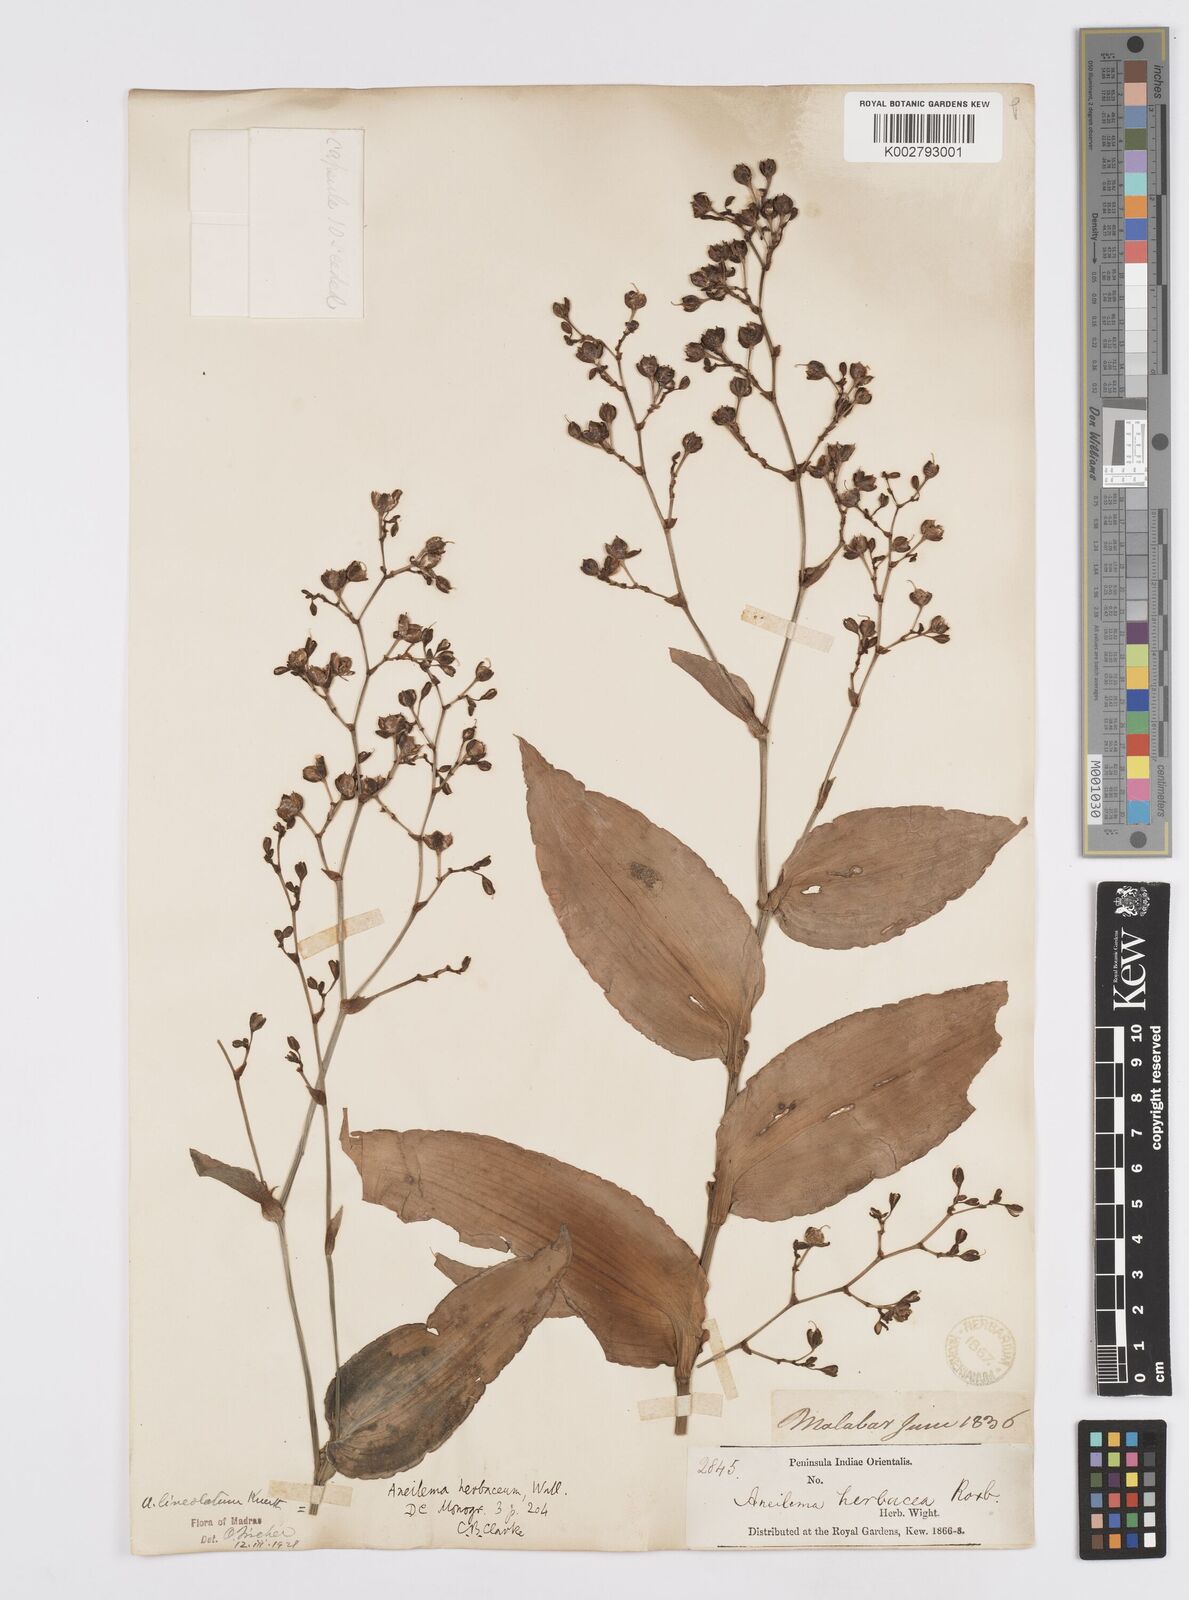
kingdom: Plantae
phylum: Tracheophyta
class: Liliopsida
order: Commelinales
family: Commelinaceae
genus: Murdannia
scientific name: Murdannia
